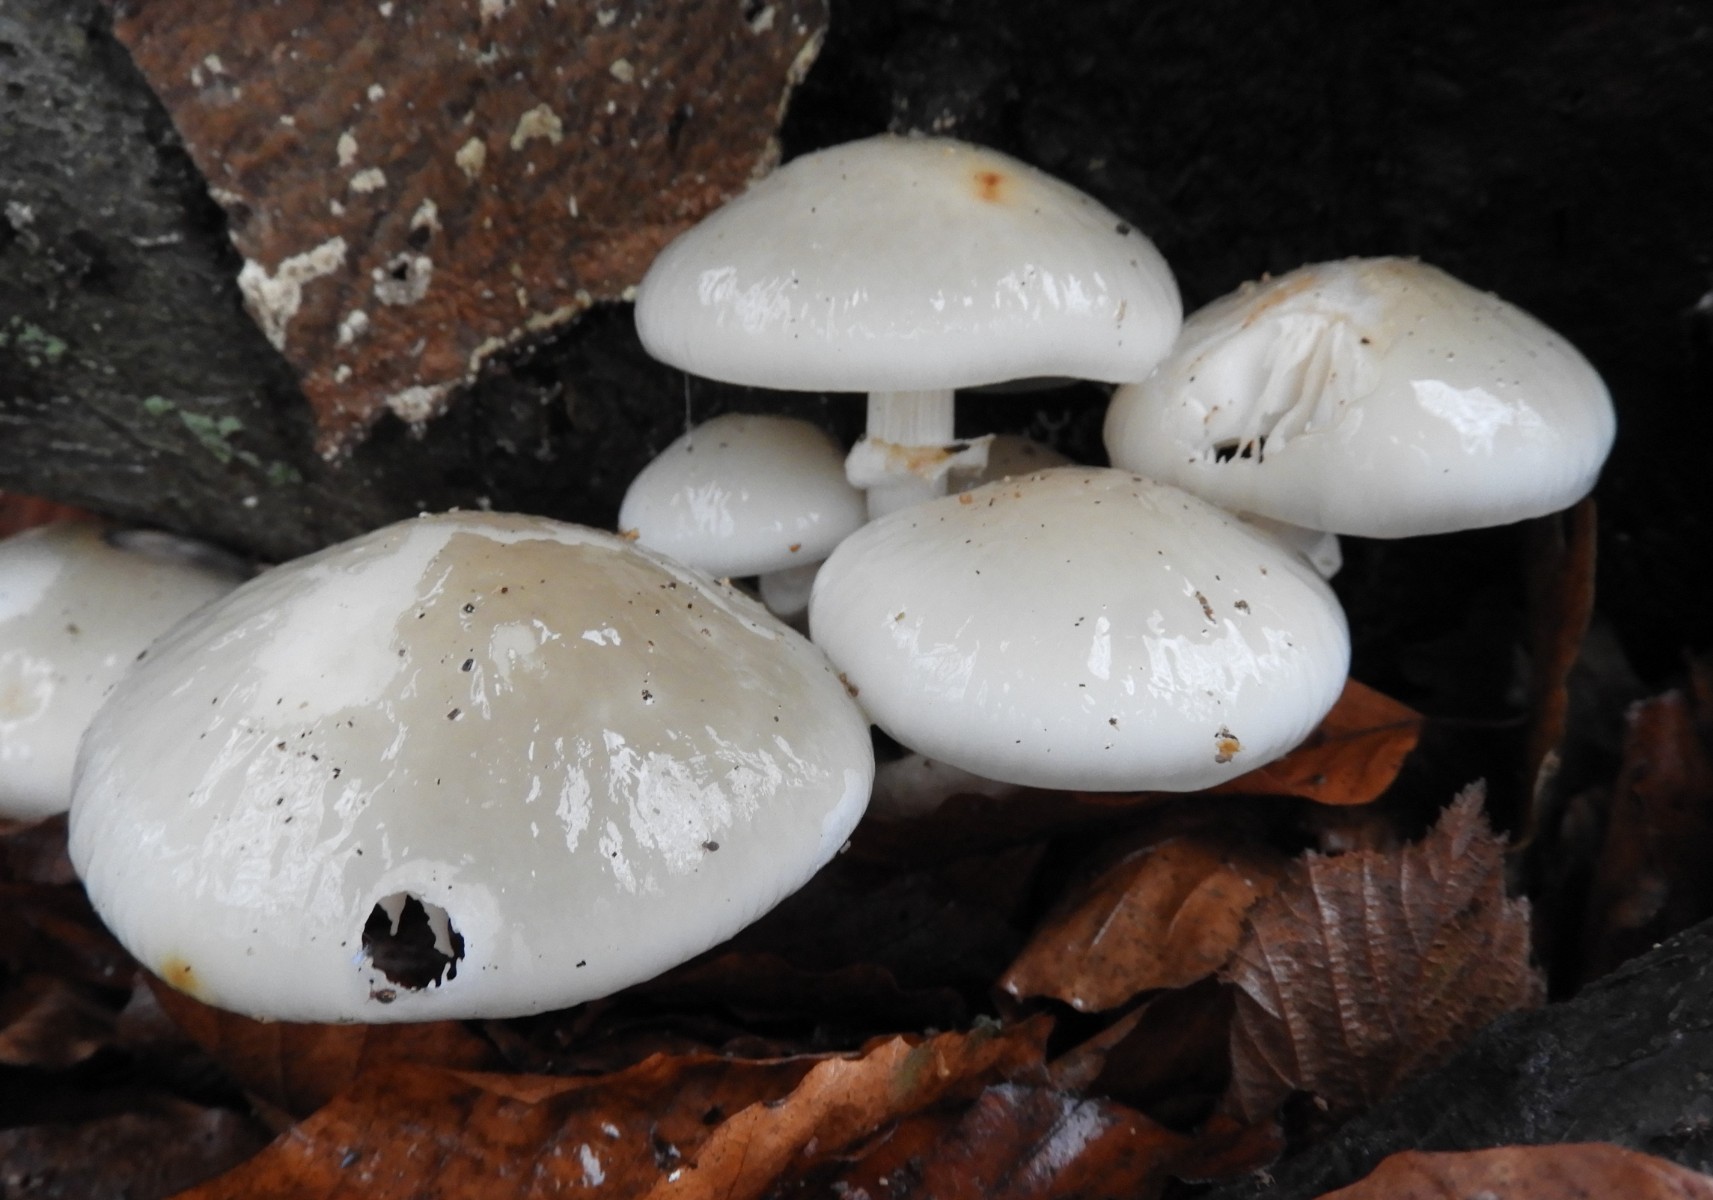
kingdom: Fungi
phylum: Basidiomycota
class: Agaricomycetes
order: Agaricales
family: Physalacriaceae
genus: Mucidula
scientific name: Mucidula mucida
